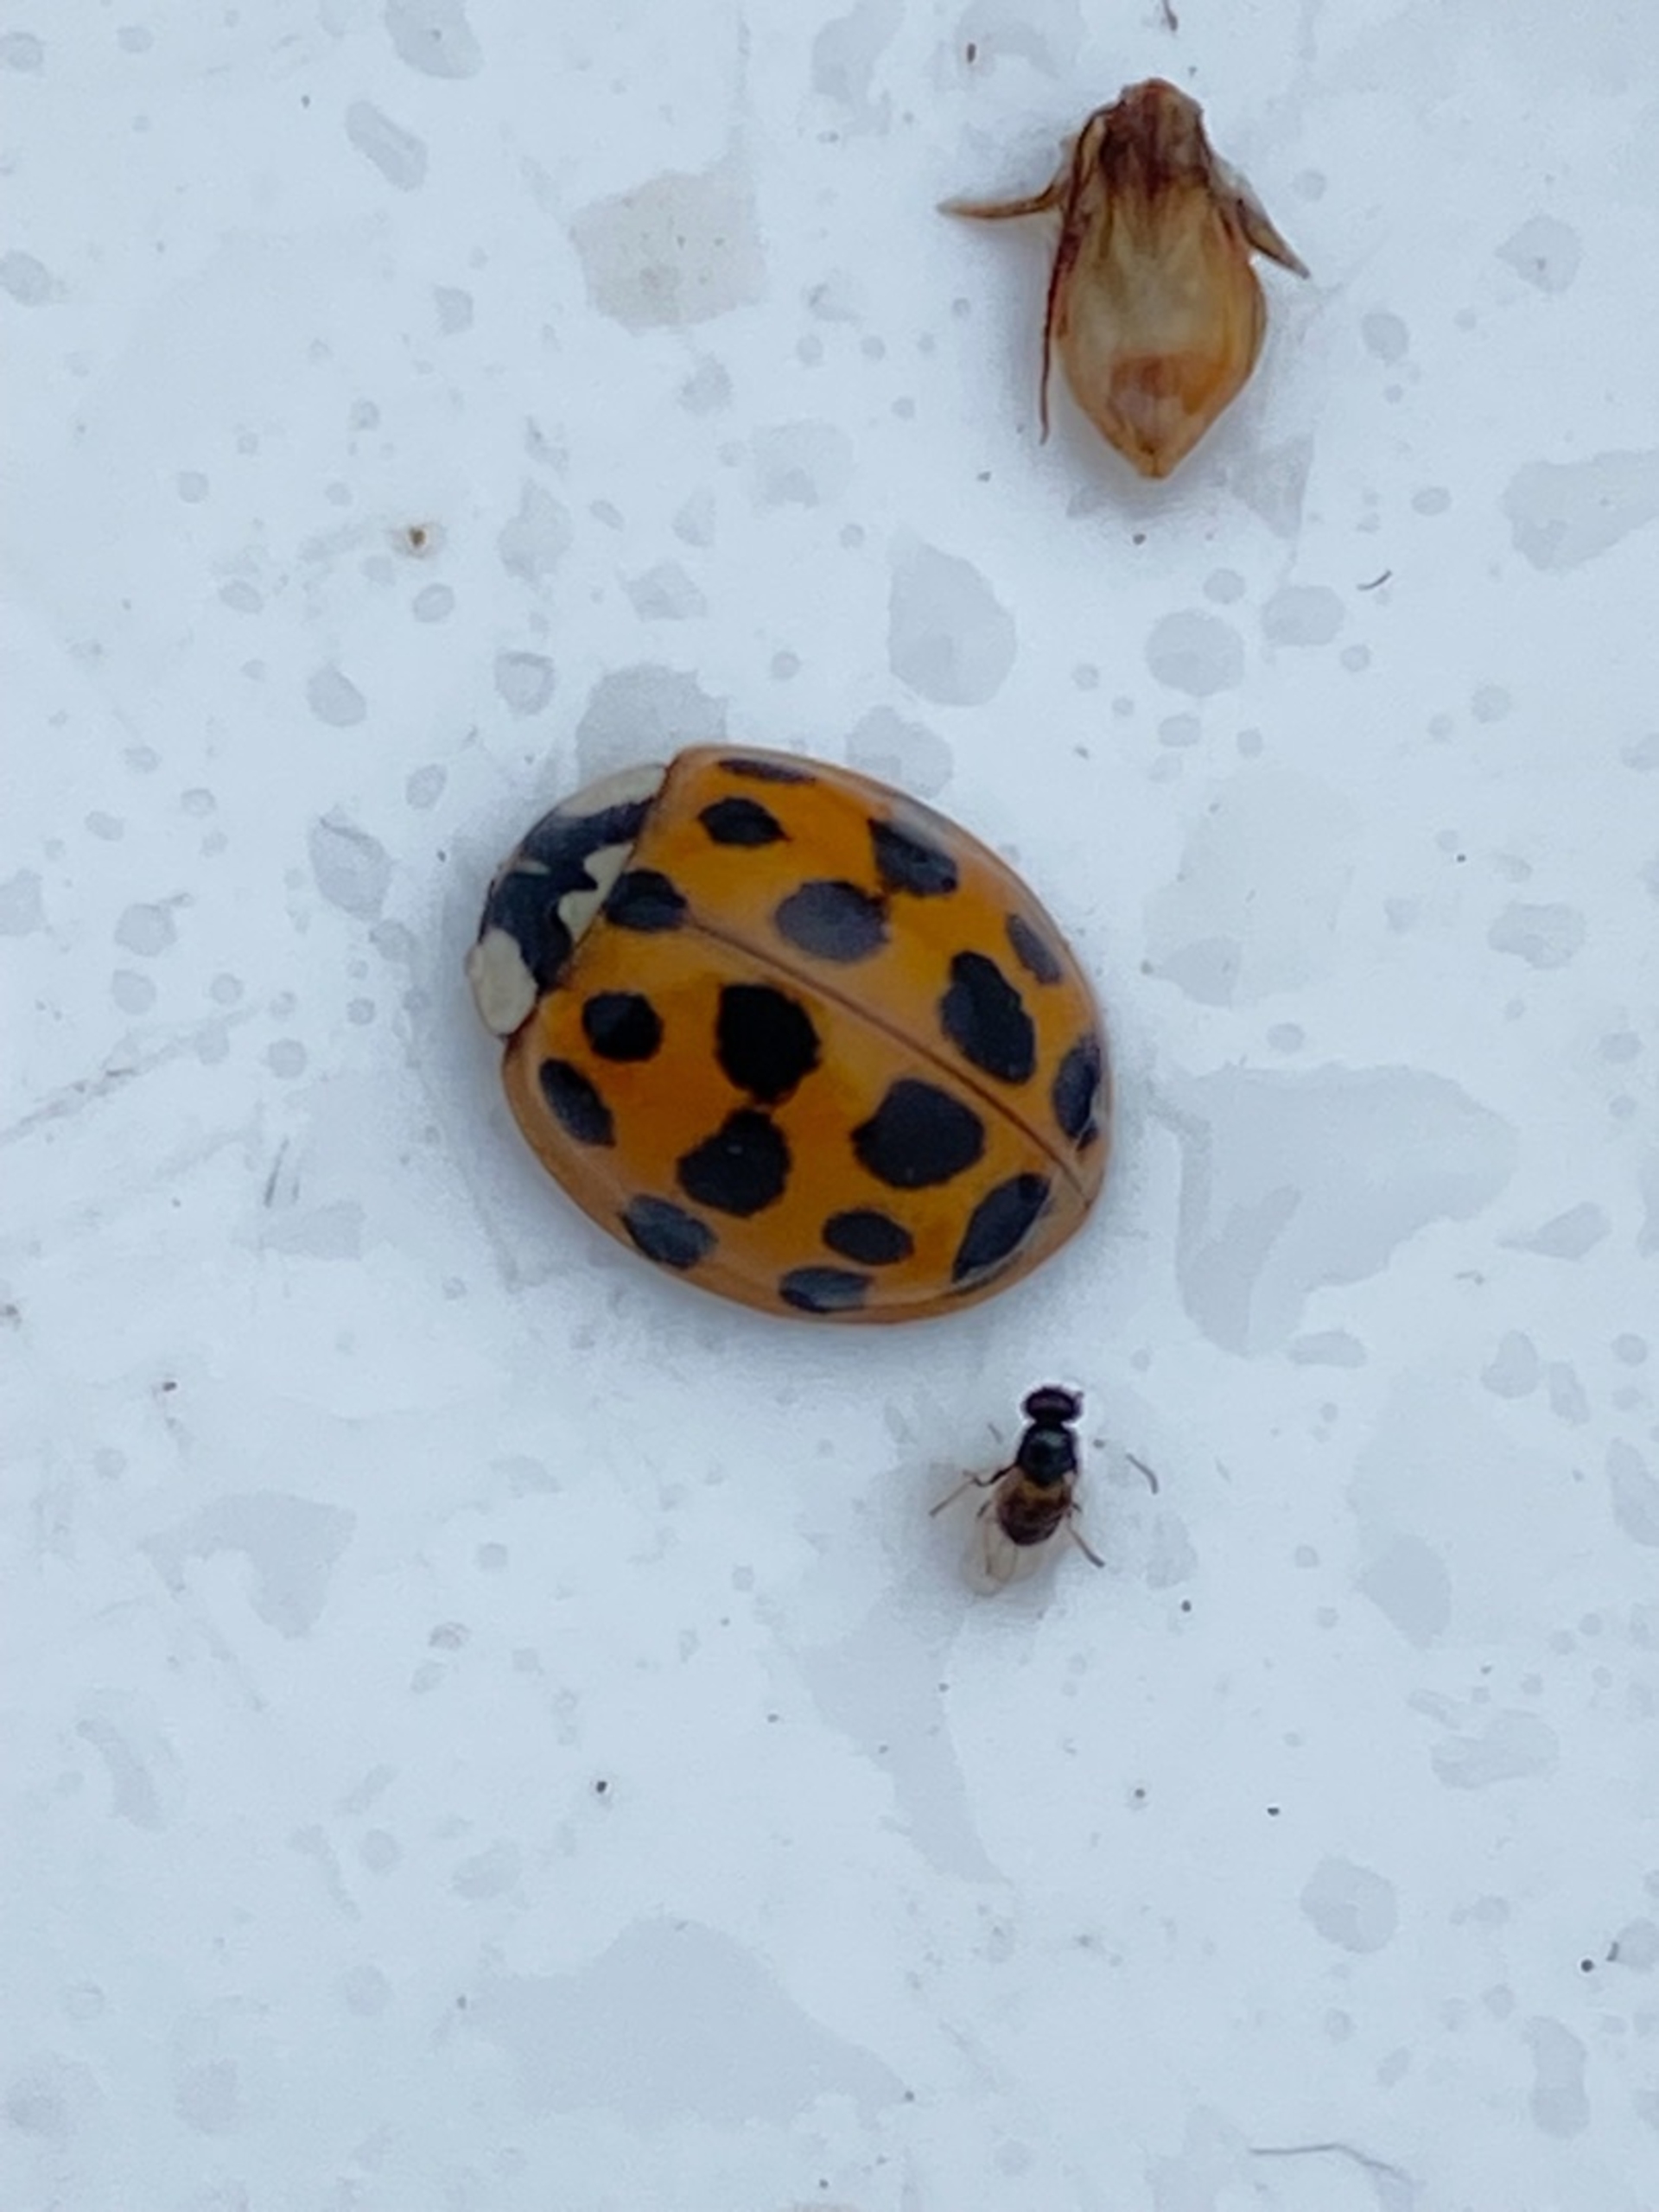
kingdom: Animalia
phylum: Arthropoda
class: Insecta
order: Coleoptera
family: Coccinellidae
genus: Harmonia
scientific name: Harmonia axyridis
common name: Harlekinmariehøne
